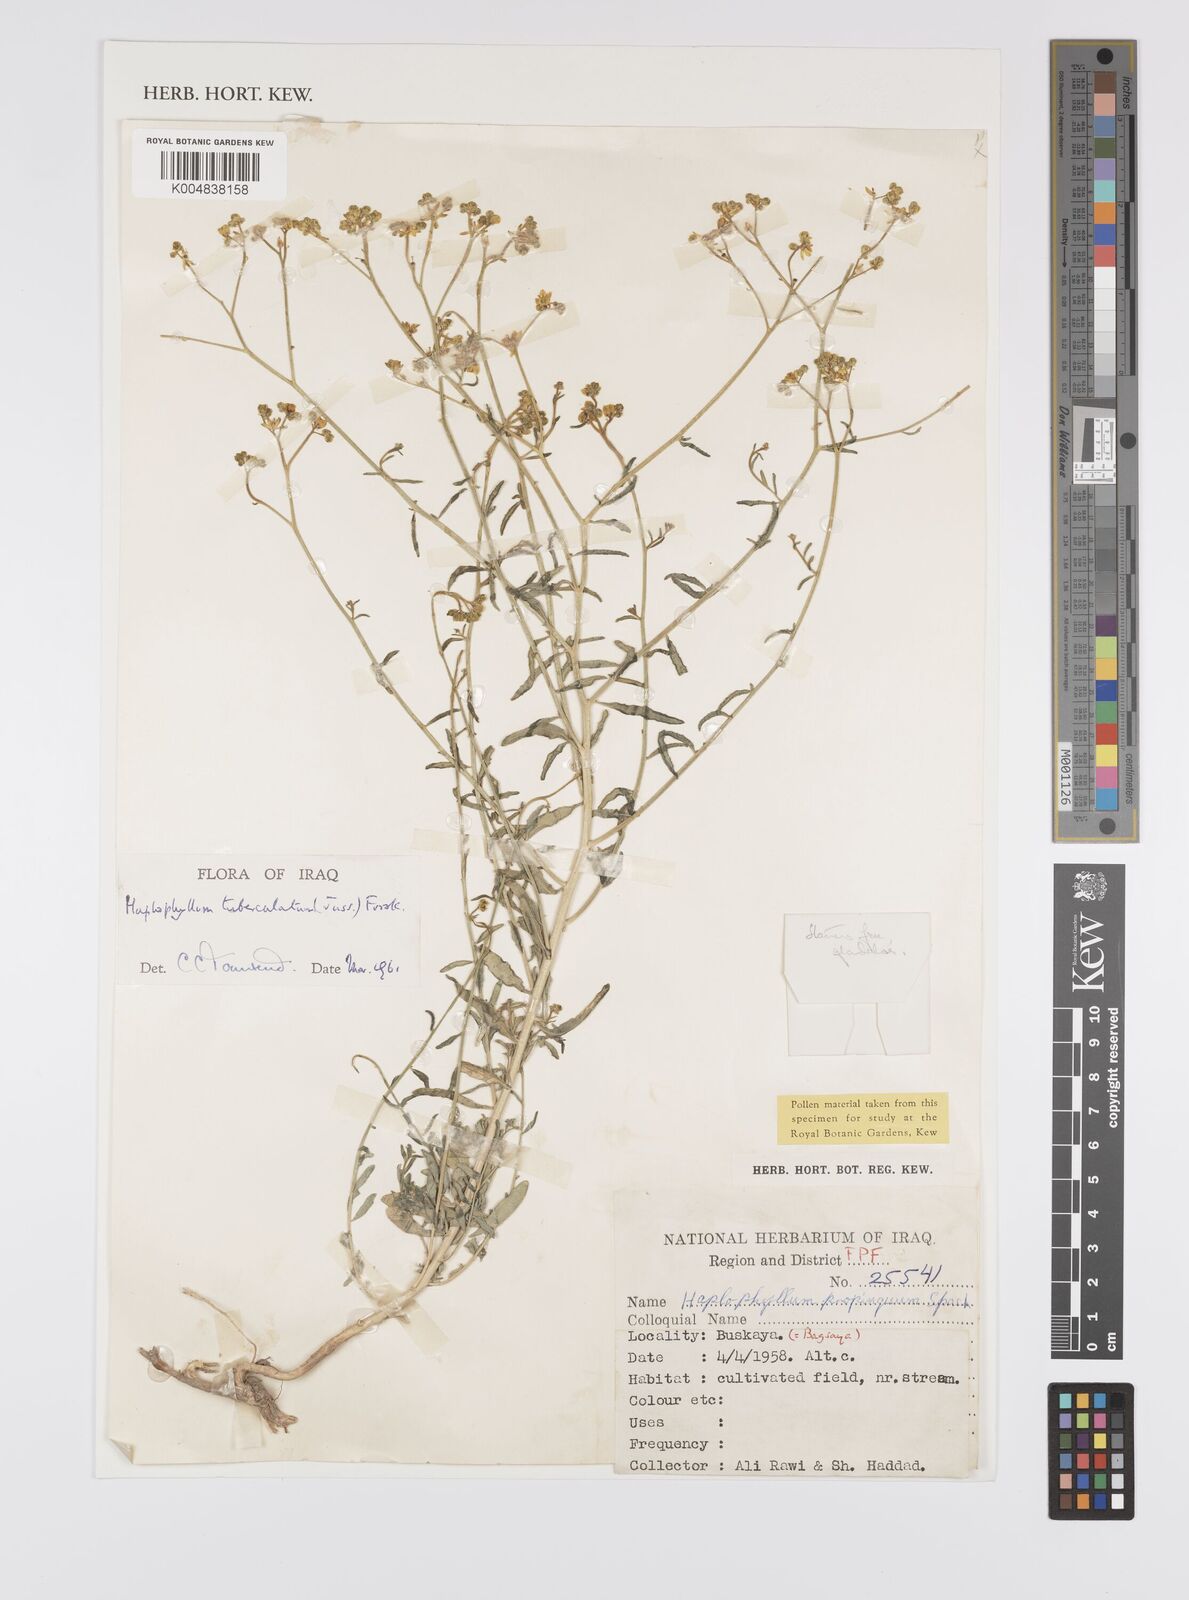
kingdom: Plantae
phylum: Tracheophyta
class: Magnoliopsida
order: Sapindales
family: Rutaceae
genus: Haplophyllum
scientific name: Haplophyllum tuberculatum
